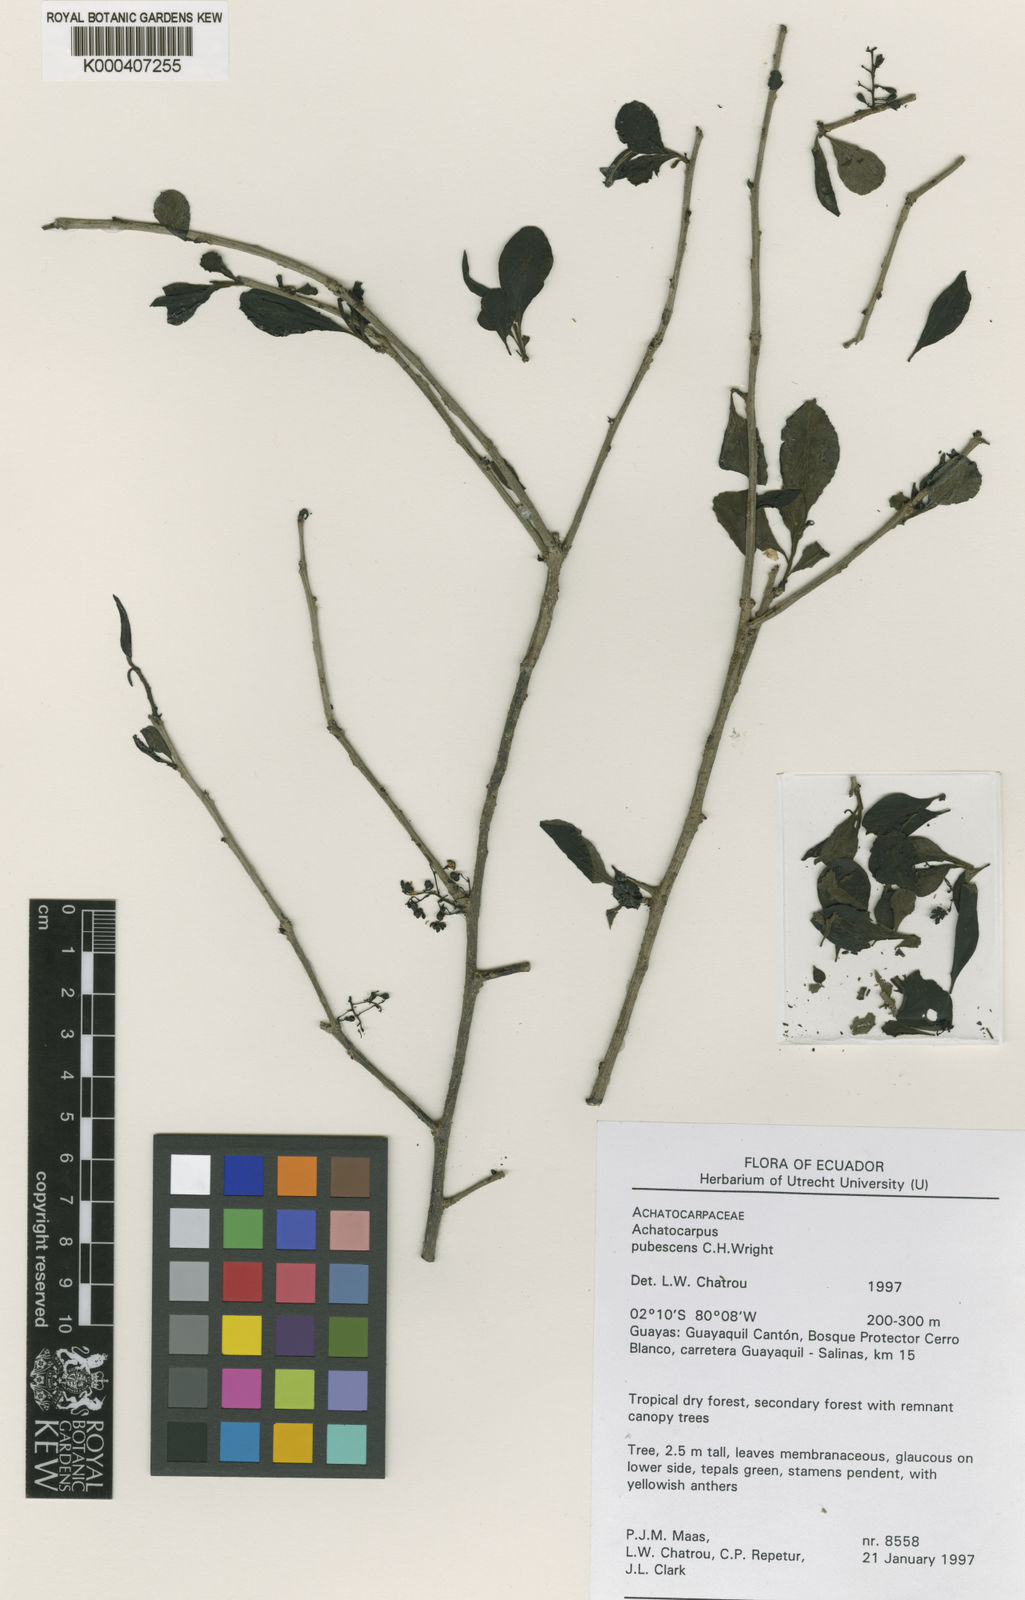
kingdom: Plantae
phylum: Tracheophyta
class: Magnoliopsida
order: Caryophyllales
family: Achatocarpaceae
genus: Achatocarpus
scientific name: Achatocarpus pubescens
